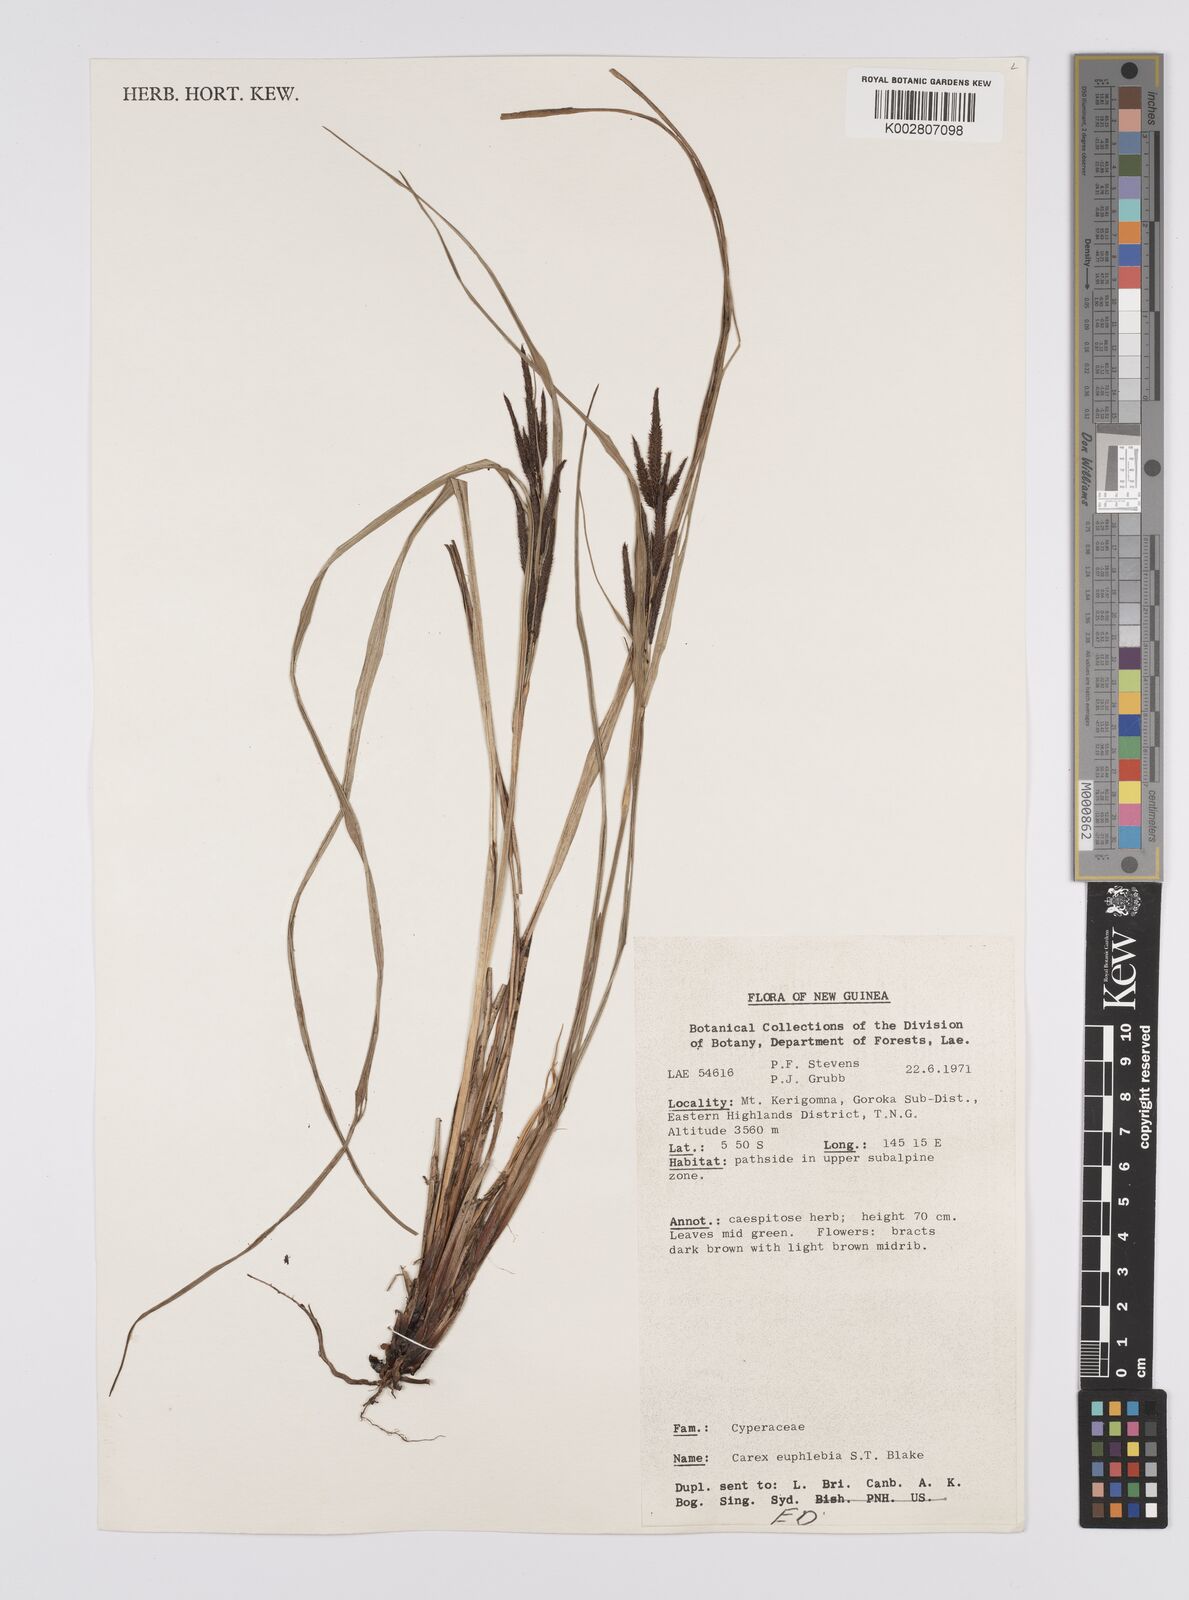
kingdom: Plantae
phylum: Tracheophyta
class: Liliopsida
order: Poales
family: Cyperaceae
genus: Carex
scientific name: Carex graeffeana
